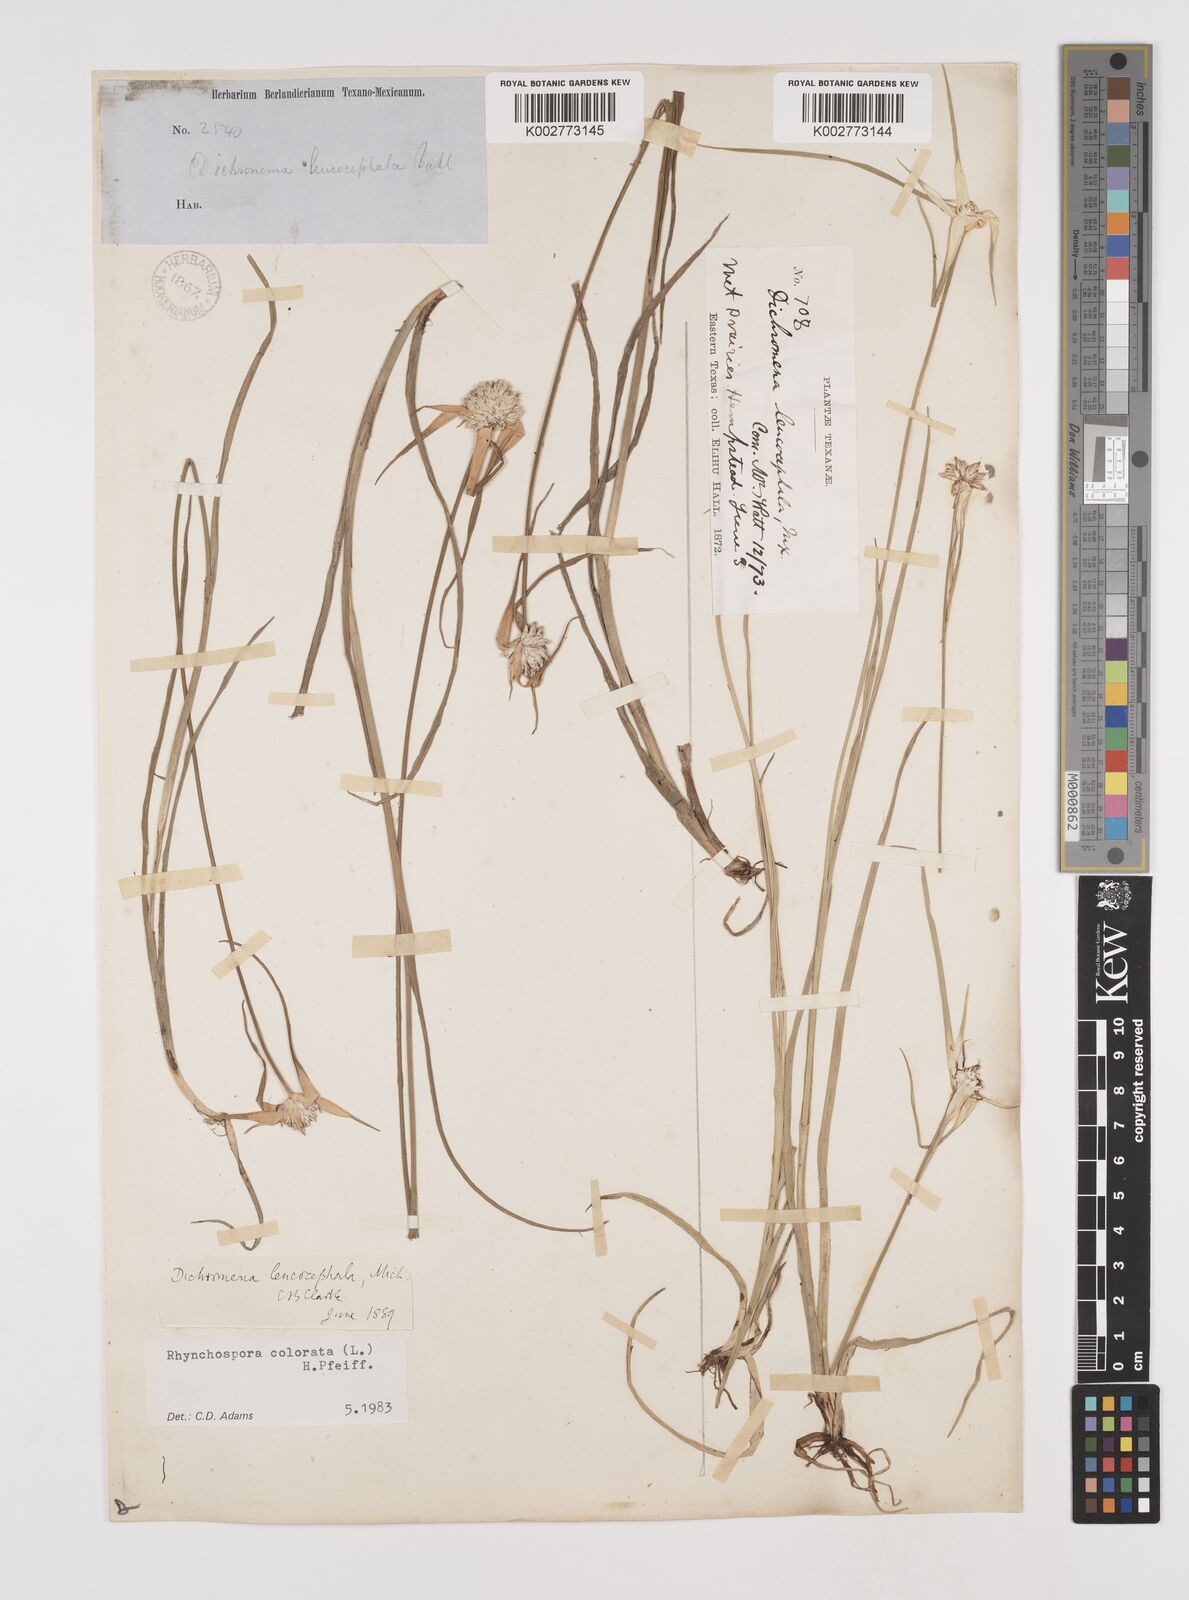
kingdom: Plantae
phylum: Tracheophyta
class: Liliopsida
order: Poales
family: Cyperaceae
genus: Rhynchospora
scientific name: Rhynchospora colorata
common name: Star sedge
